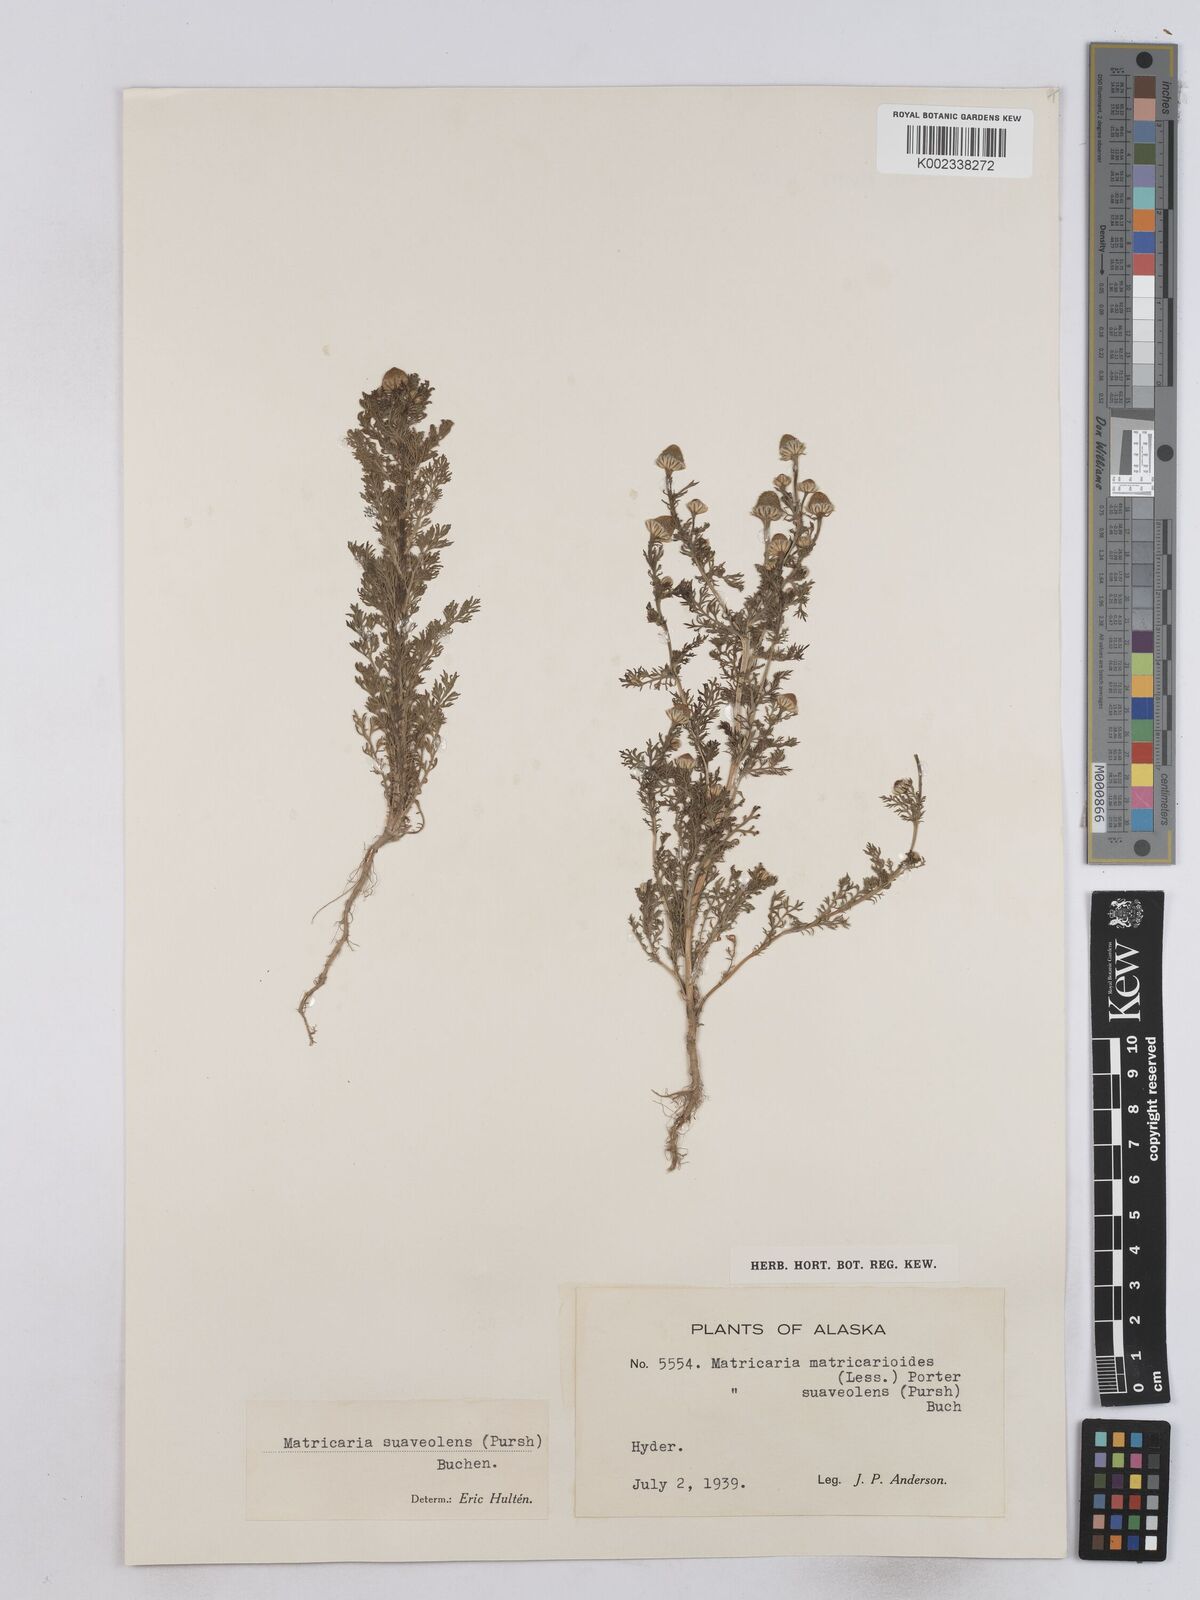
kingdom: Plantae
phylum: Tracheophyta
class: Magnoliopsida
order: Asterales
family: Asteraceae
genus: Matricaria
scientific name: Matricaria
